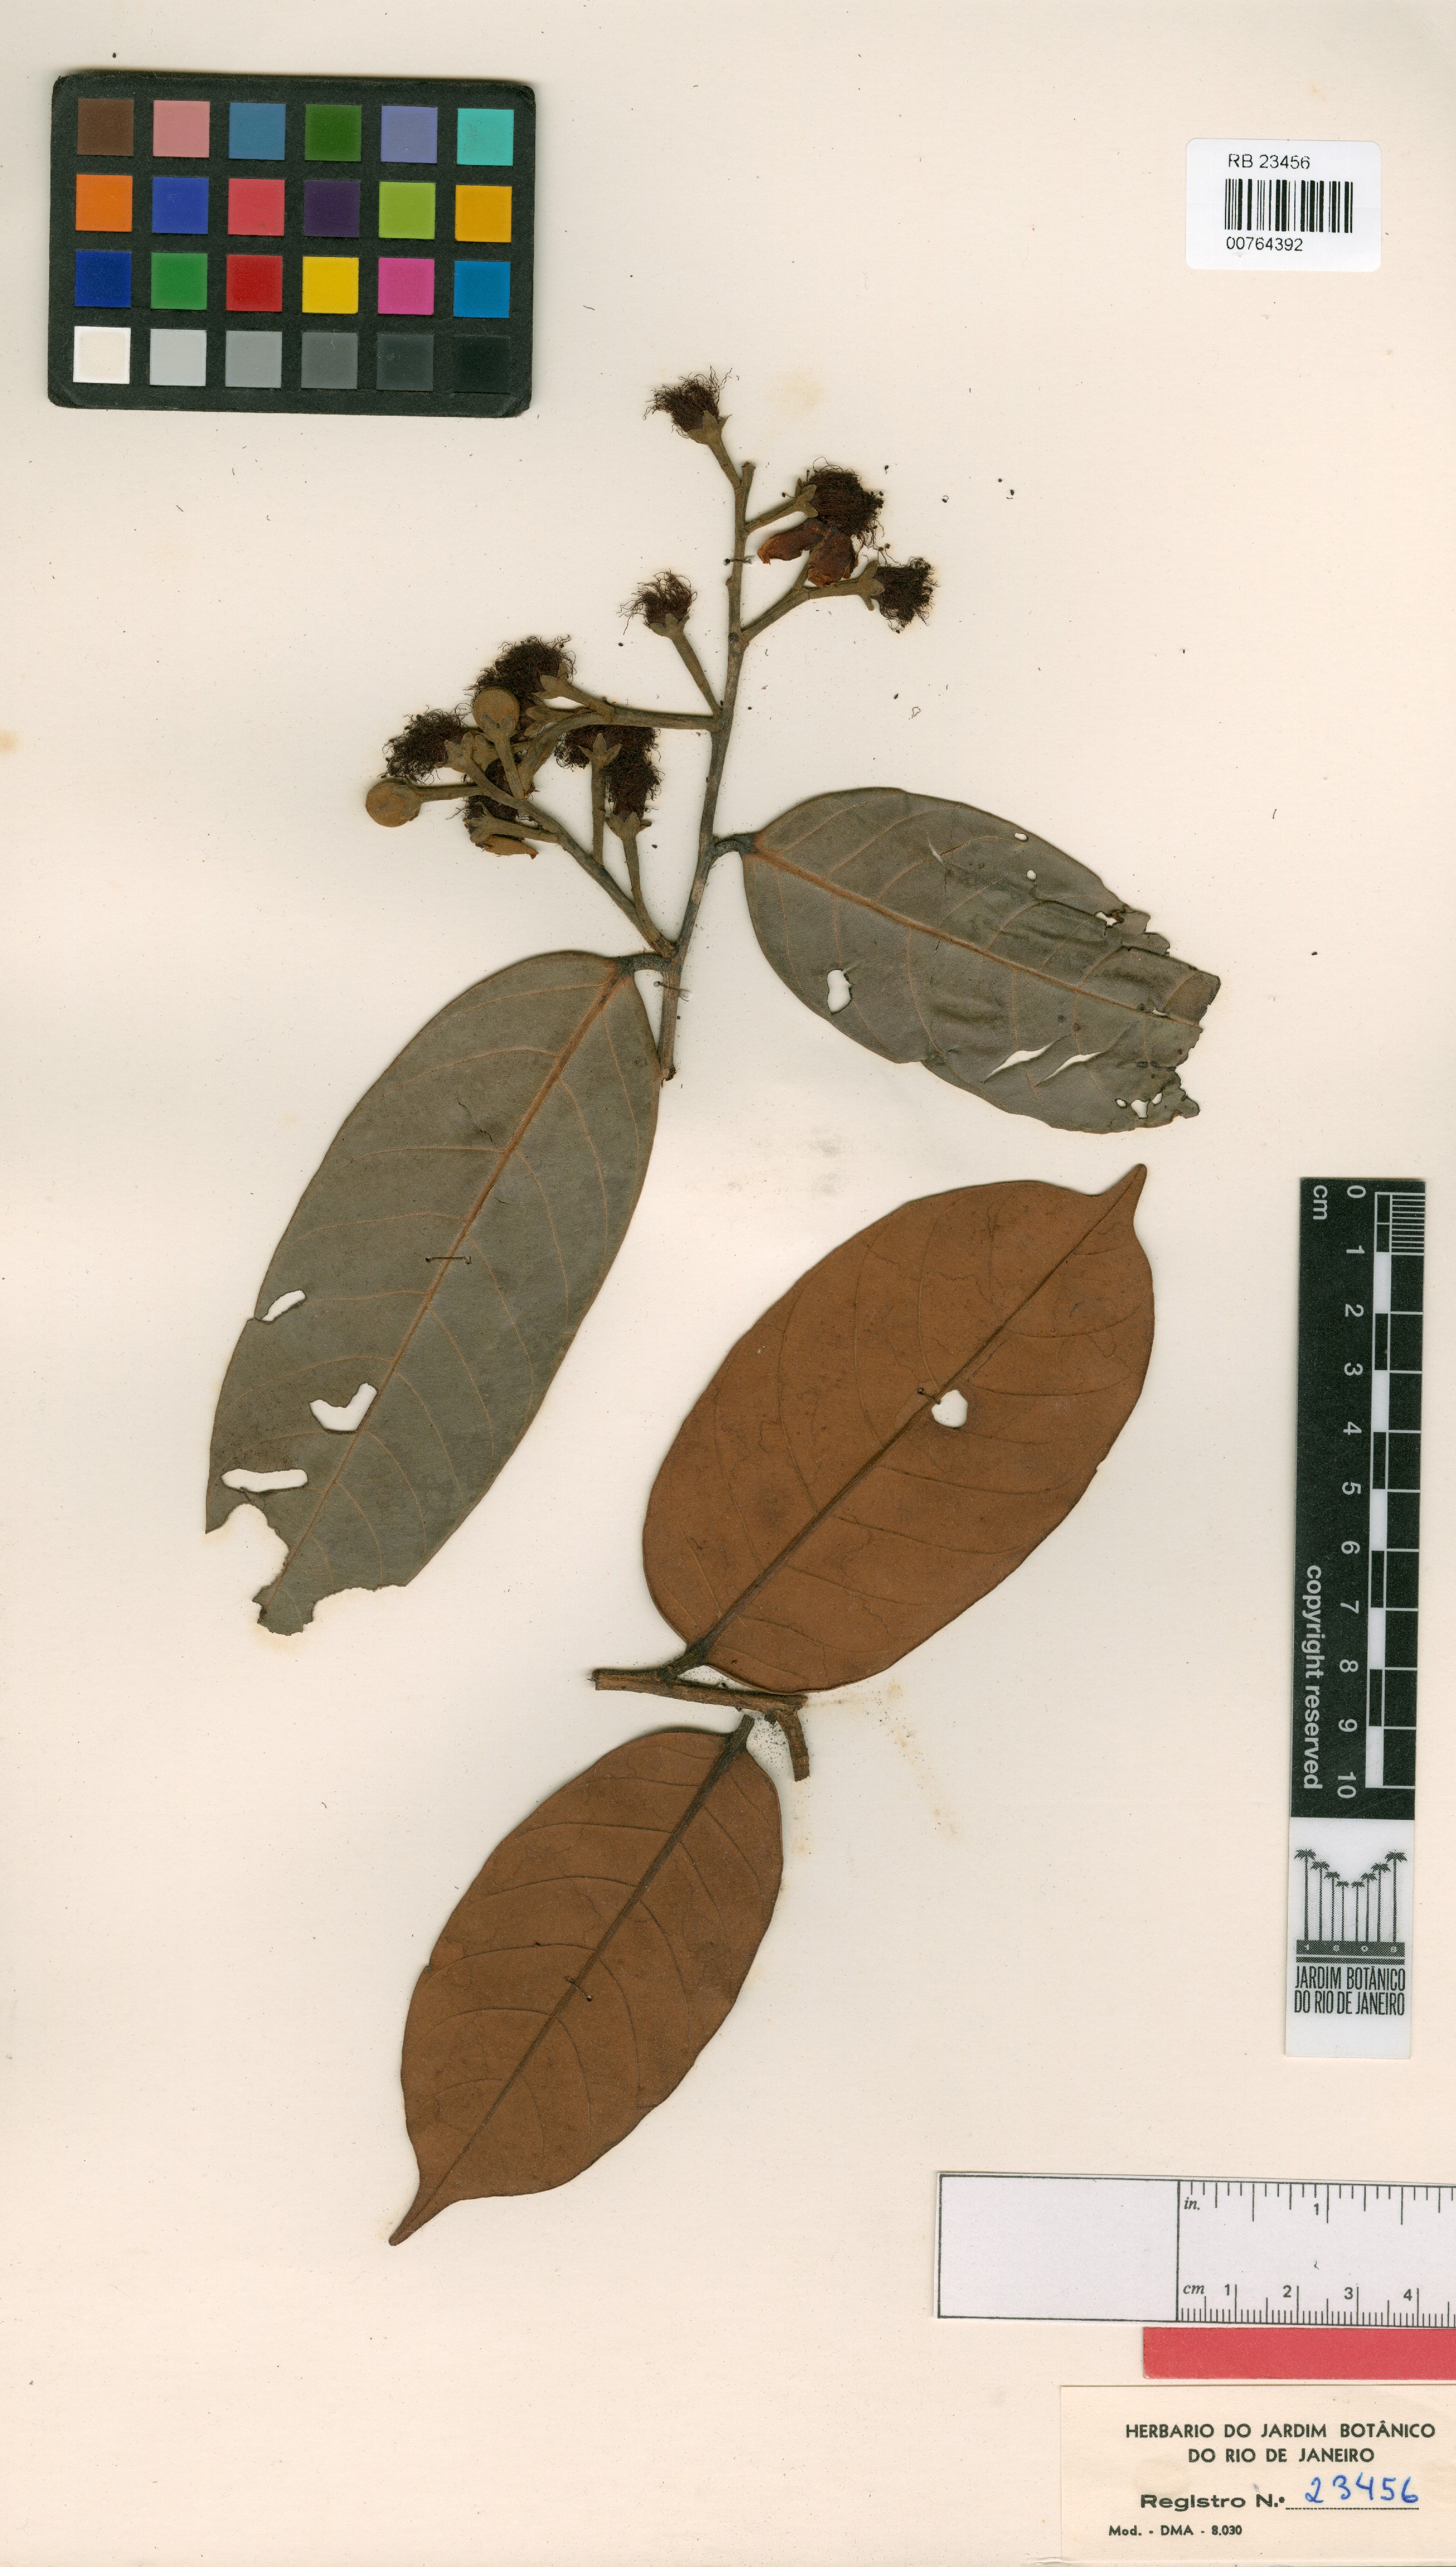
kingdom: Plantae
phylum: Tracheophyta
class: Magnoliopsida
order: Malpighiales
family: Calophyllaceae
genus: Caraipa
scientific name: Caraipa heterocarpa
